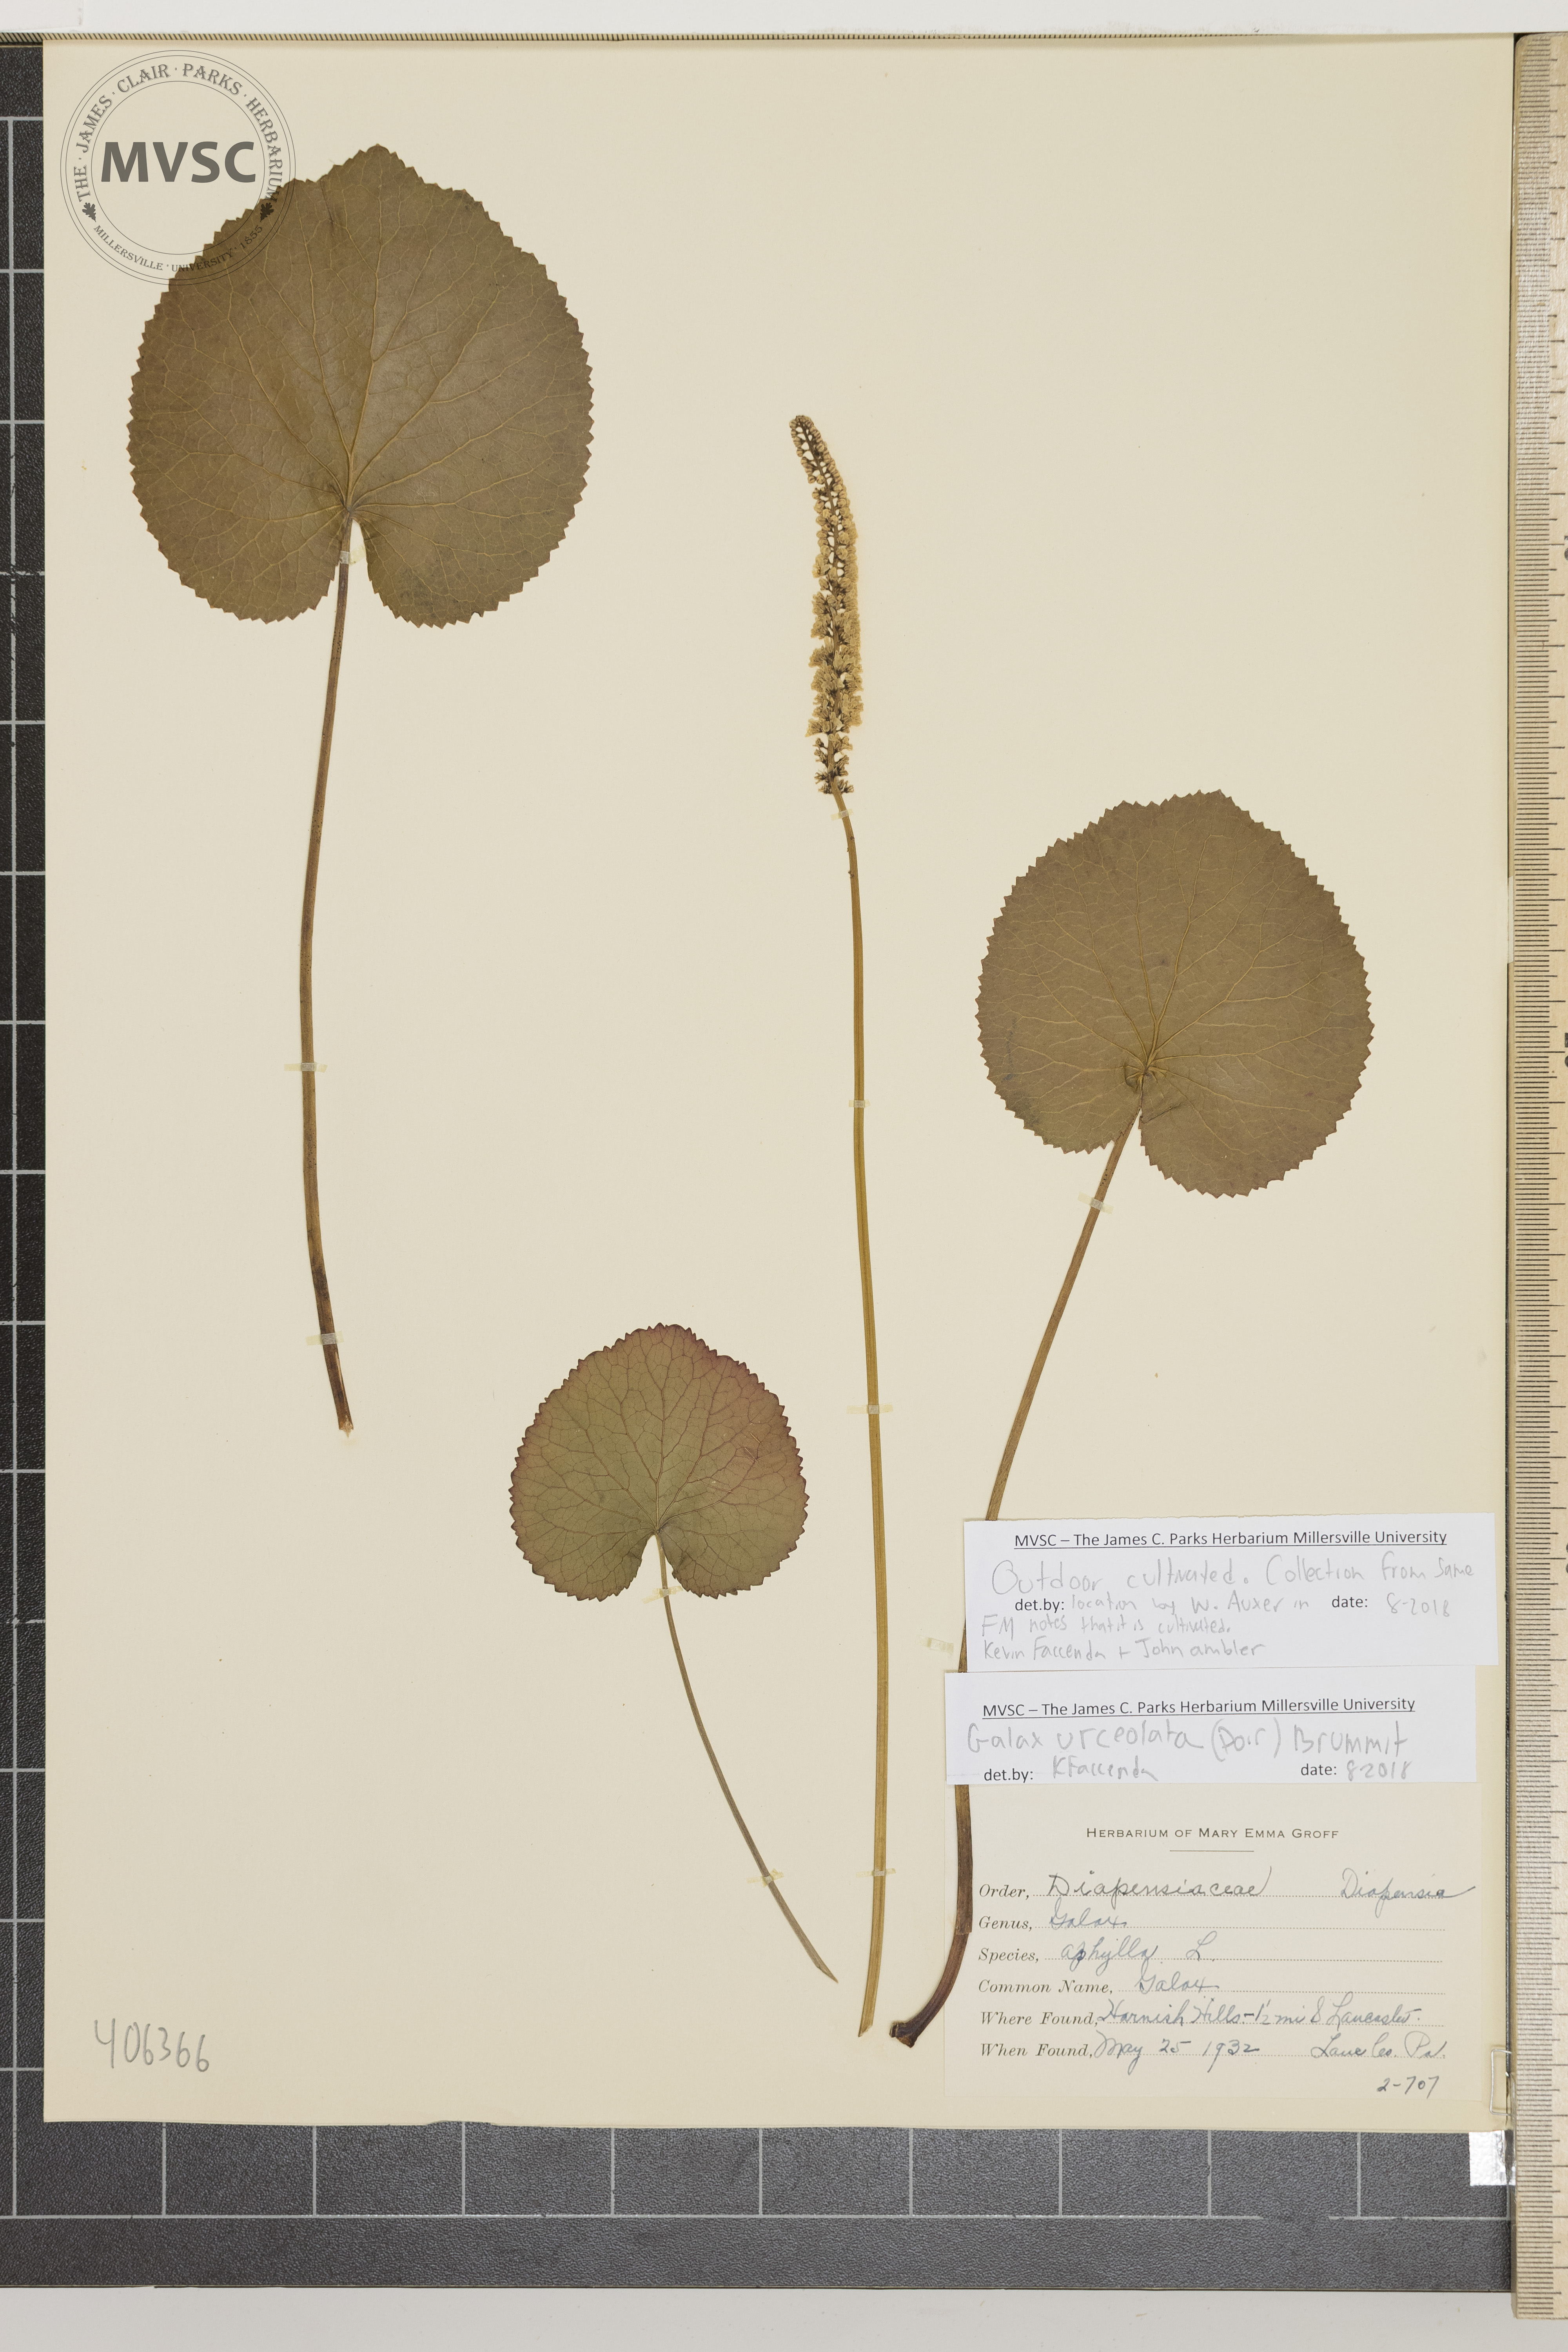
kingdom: Plantae
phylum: Tracheophyta
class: Magnoliopsida
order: Ericales
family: Diapensiaceae
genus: Galax
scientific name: Galax urceolata
